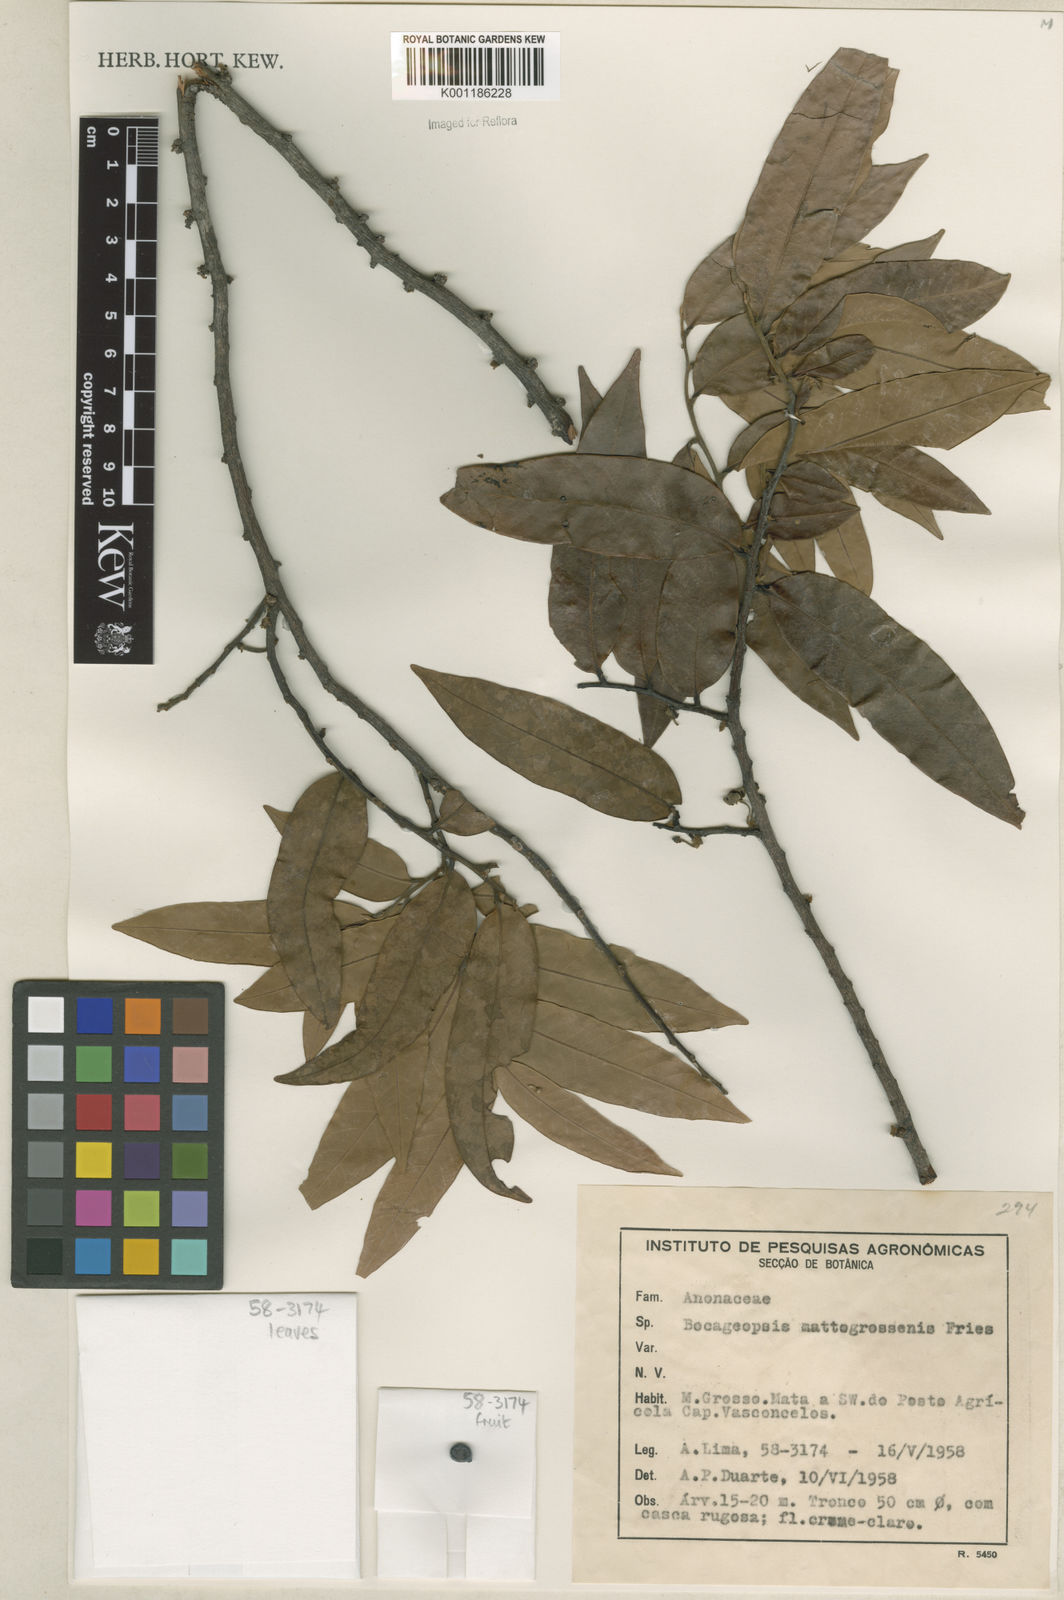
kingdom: Plantae
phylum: Tracheophyta
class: Magnoliopsida
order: Magnoliales
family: Annonaceae
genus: Bocageopsis
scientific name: Bocageopsis mattogrossensis
